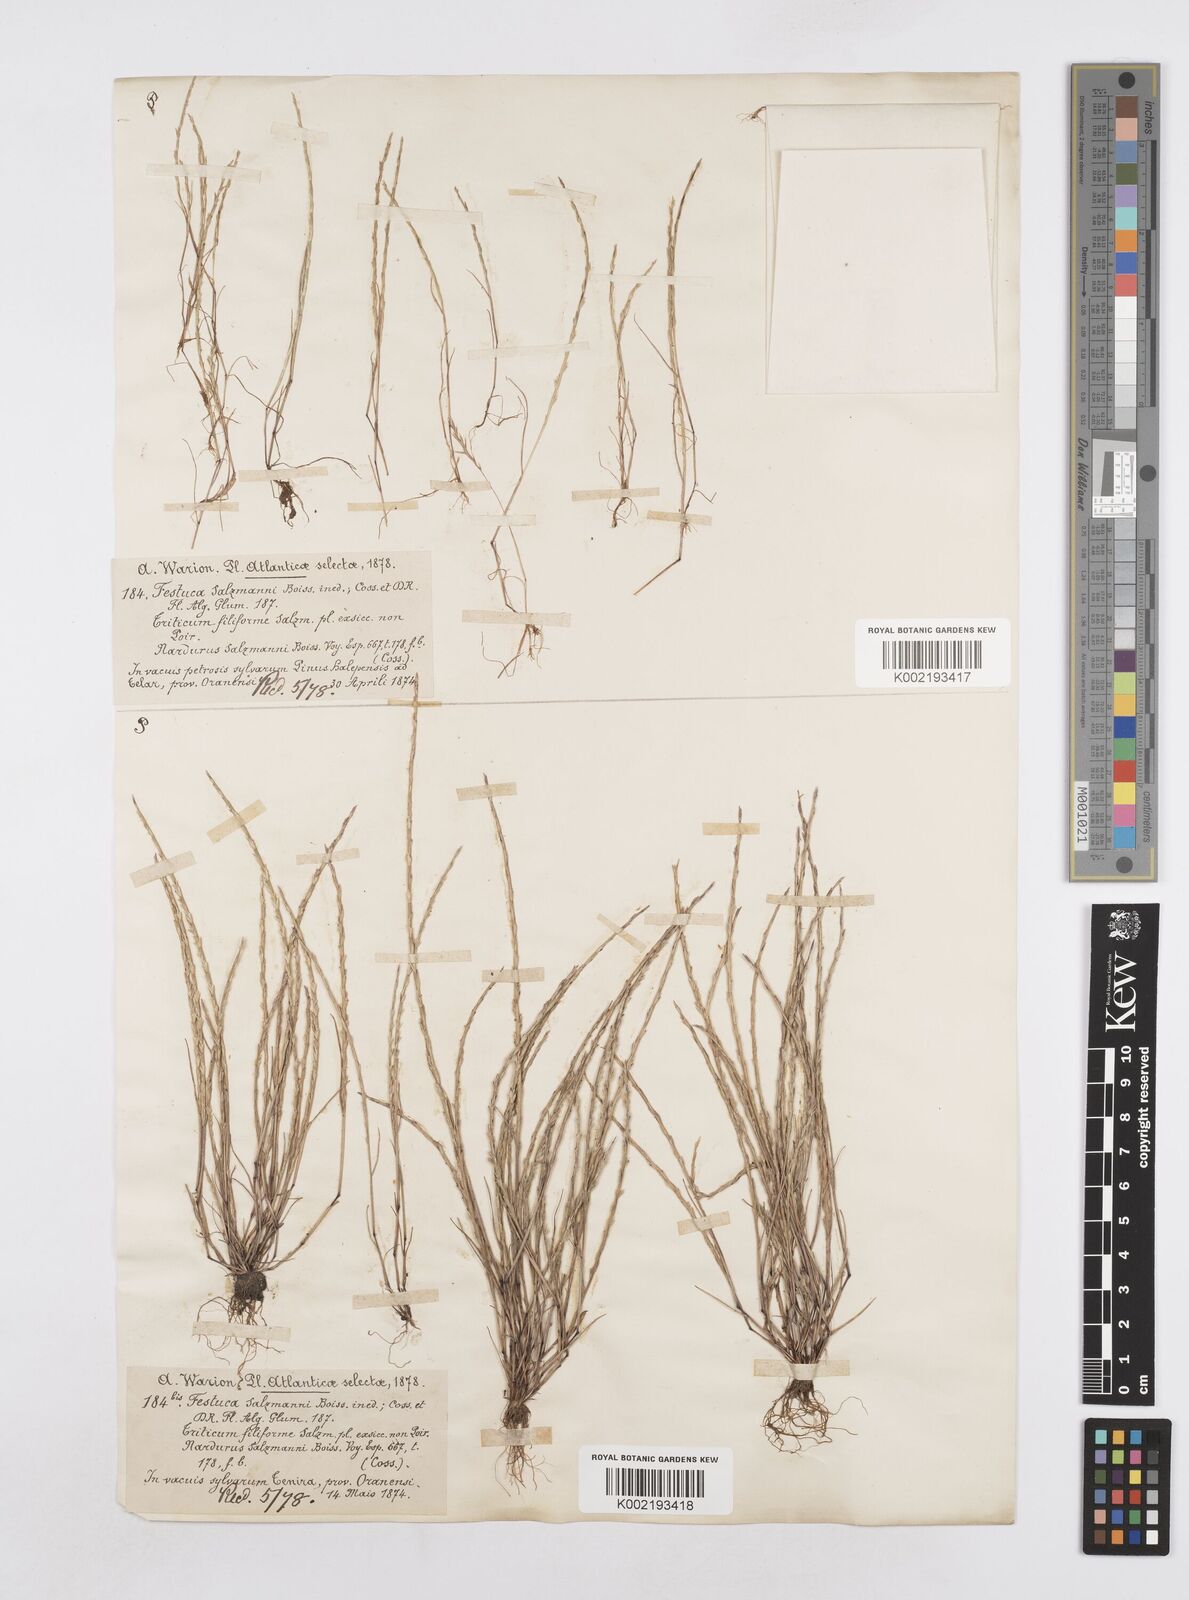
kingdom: Plantae
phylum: Tracheophyta
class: Liliopsida
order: Poales
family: Poaceae
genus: Festuca
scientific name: Festuca salzmannii
